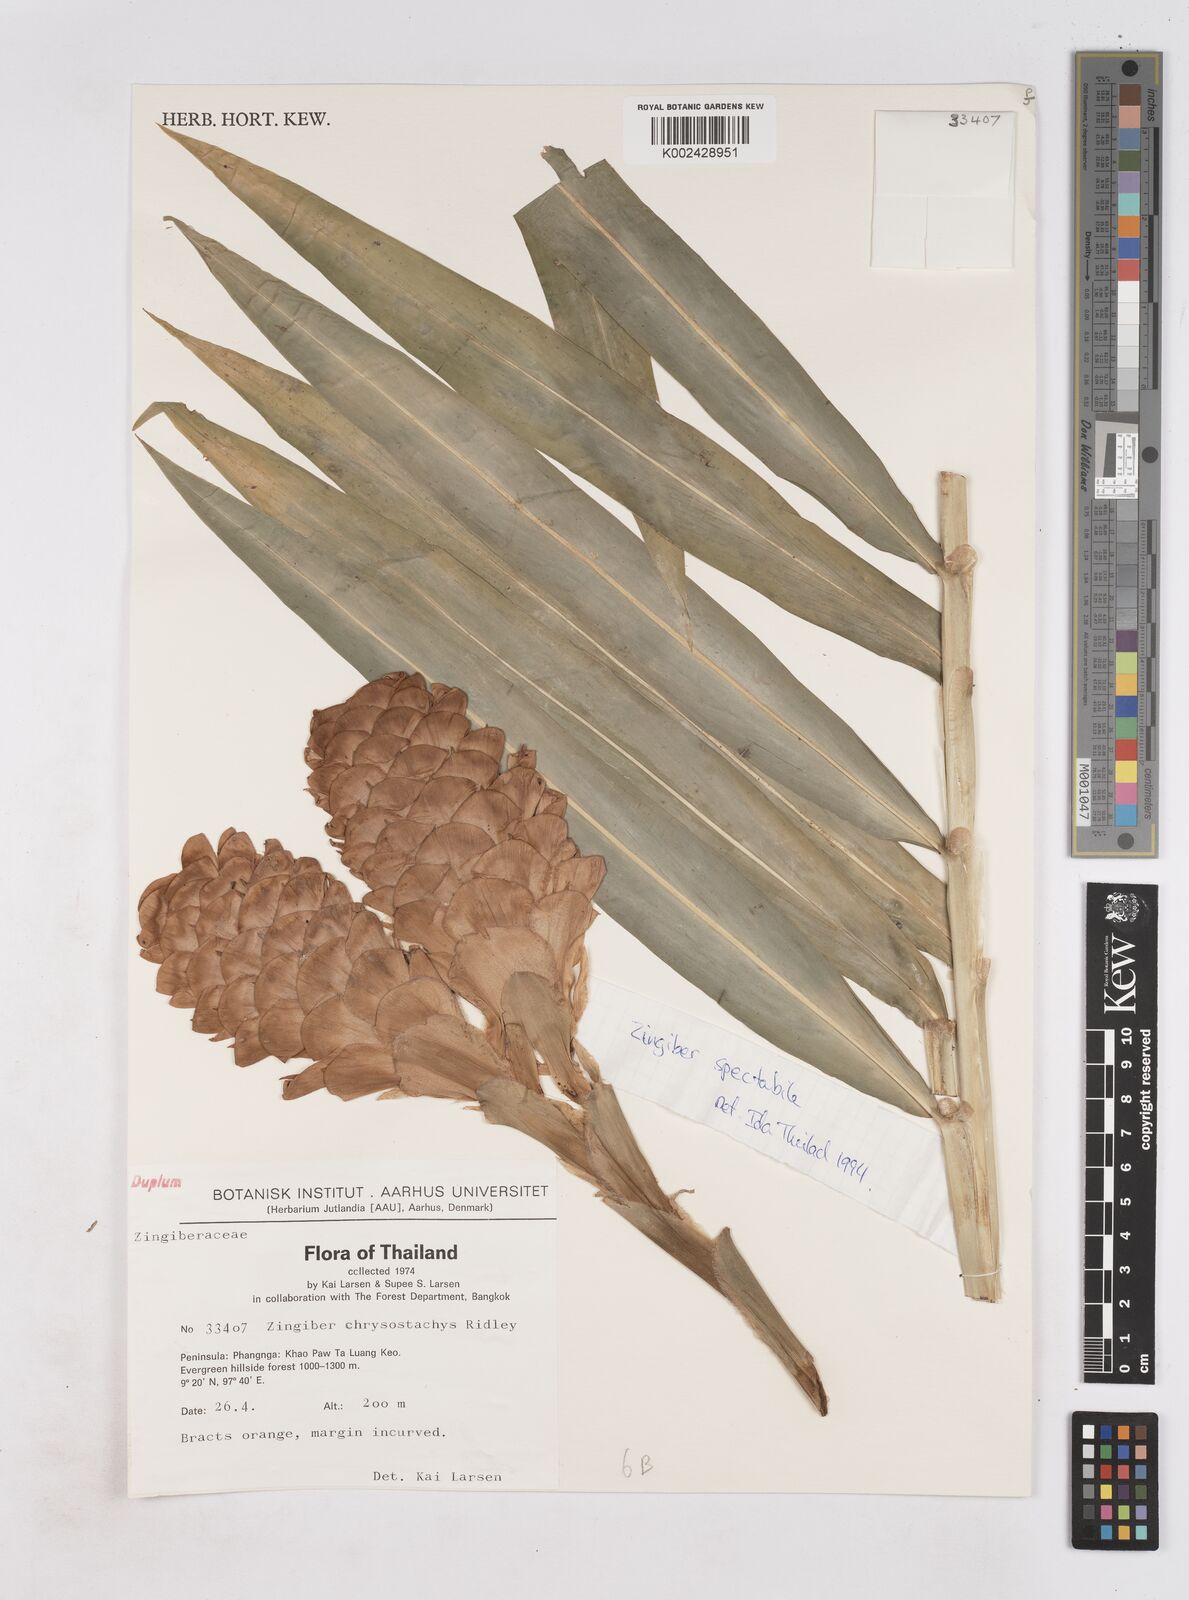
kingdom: Plantae
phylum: Tracheophyta
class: Liliopsida
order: Zingiberales
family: Zingiberaceae
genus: Zingiber
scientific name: Zingiber spectabile
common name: Beehive ginger
